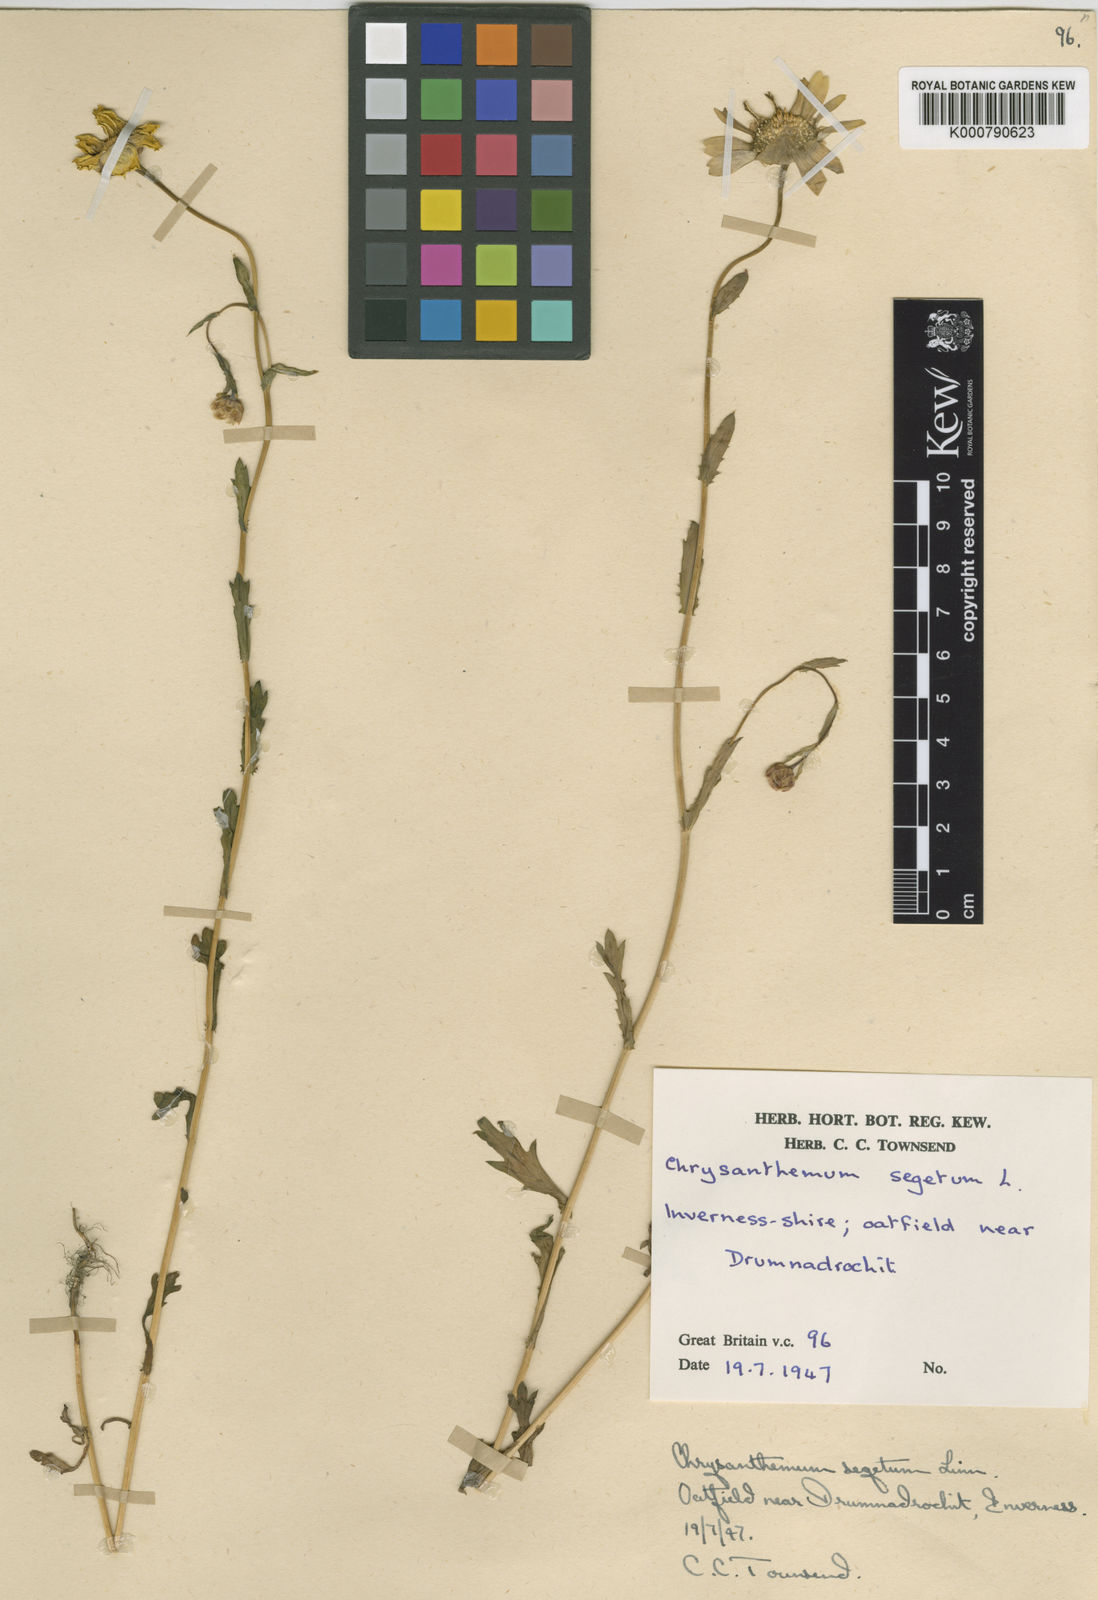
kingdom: Plantae
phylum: Tracheophyta
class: Magnoliopsida
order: Asterales
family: Asteraceae
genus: Glebionis
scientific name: Glebionis
